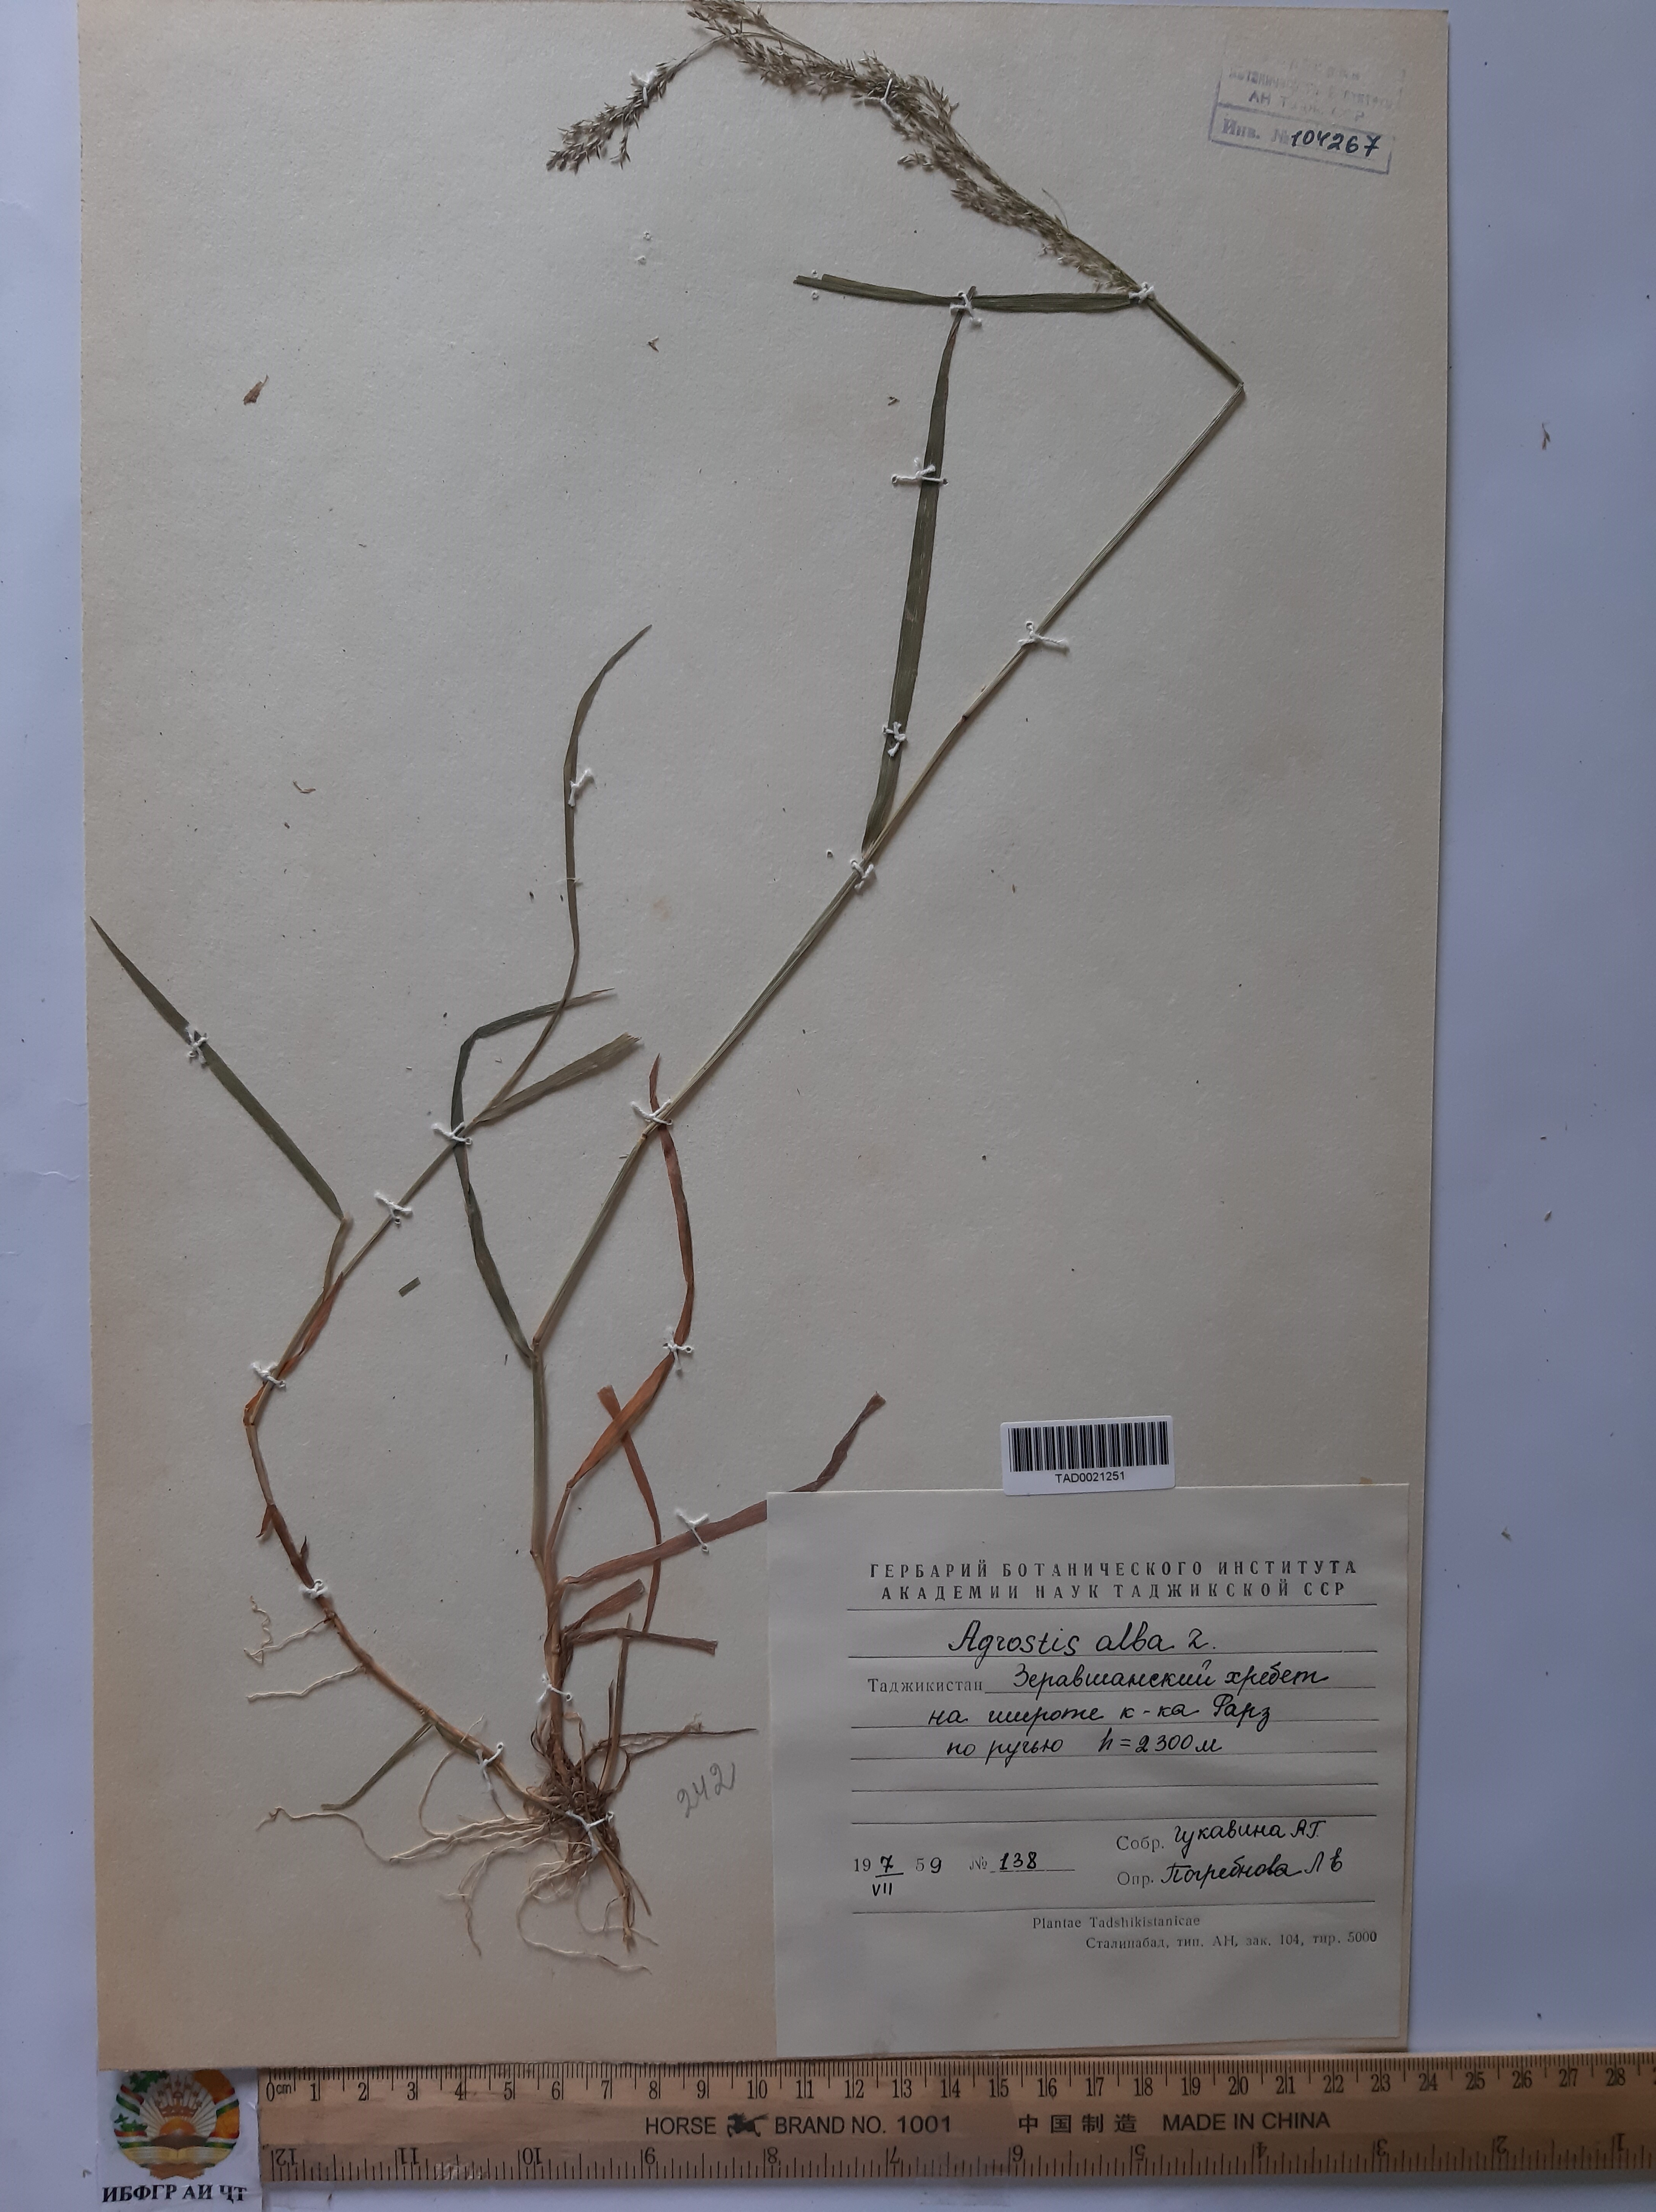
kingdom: Plantae
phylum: Tracheophyta
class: Liliopsida
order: Poales
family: Poaceae
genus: Poa
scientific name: Poa nemoralis
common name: Wood bluegrass
